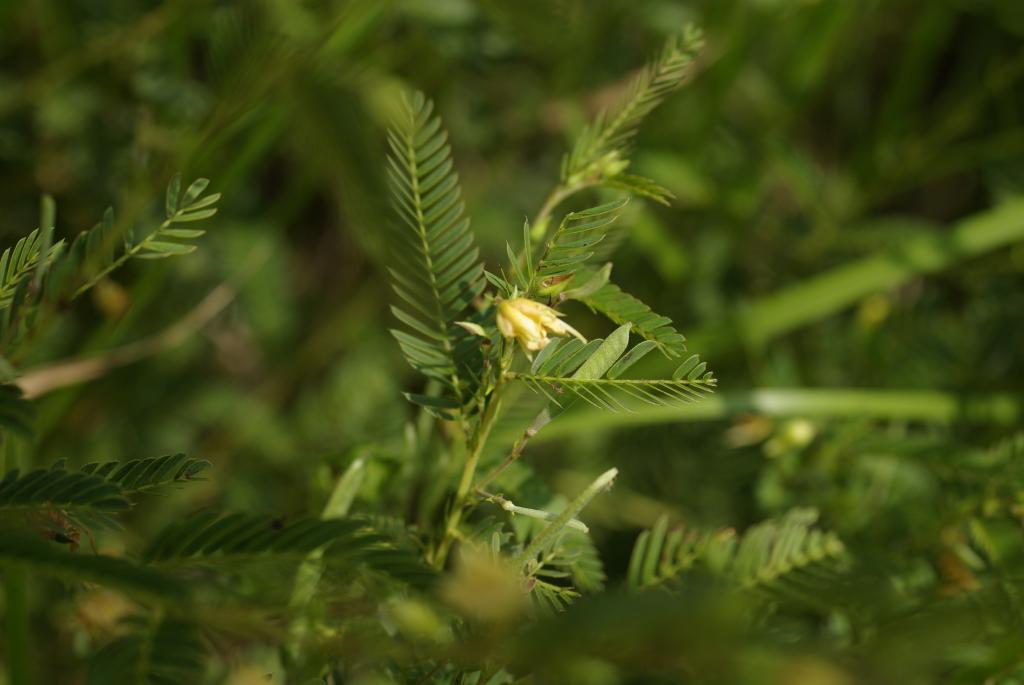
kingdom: Plantae
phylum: Tracheophyta
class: Magnoliopsida
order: Fabales
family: Fabaceae
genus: Chamaecrista
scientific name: Chamaecrista nictitans
